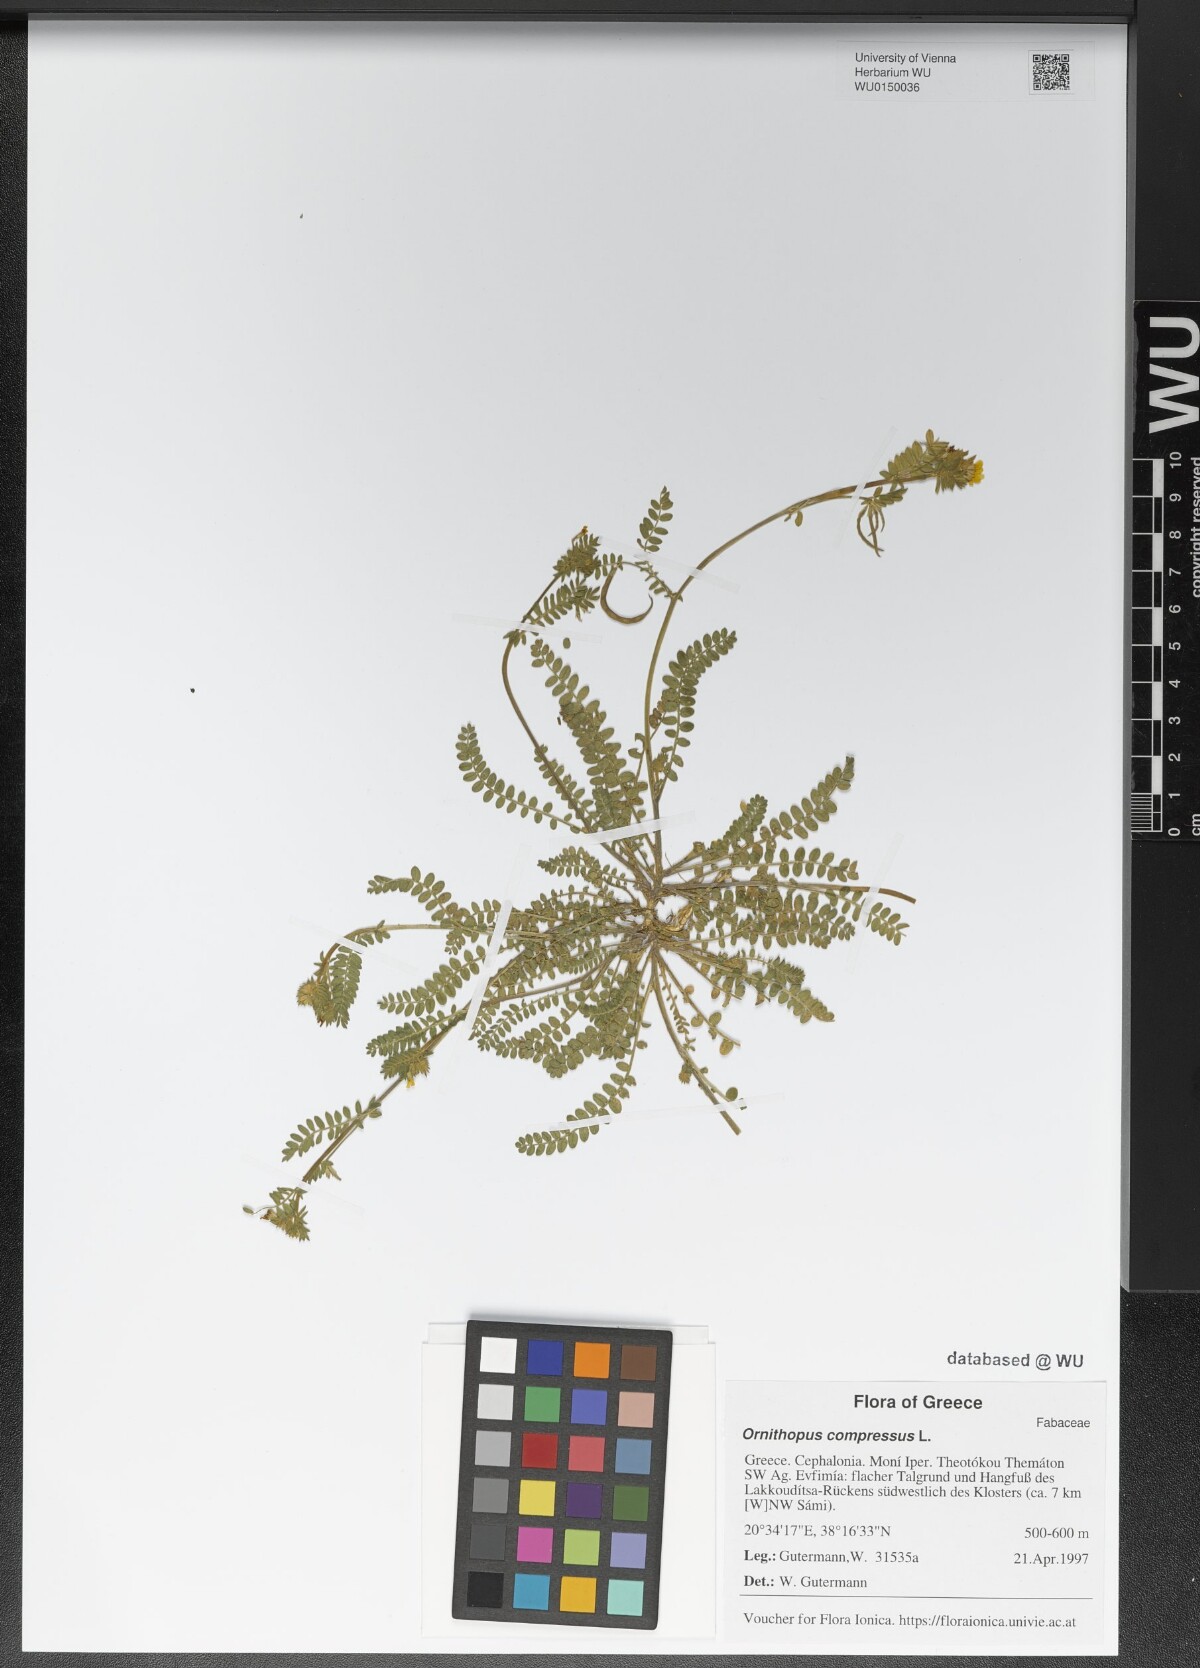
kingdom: Plantae
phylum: Tracheophyta
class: Magnoliopsida
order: Fabales
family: Fabaceae
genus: Ornithopus
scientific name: Ornithopus compressus
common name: Yellow serradella
